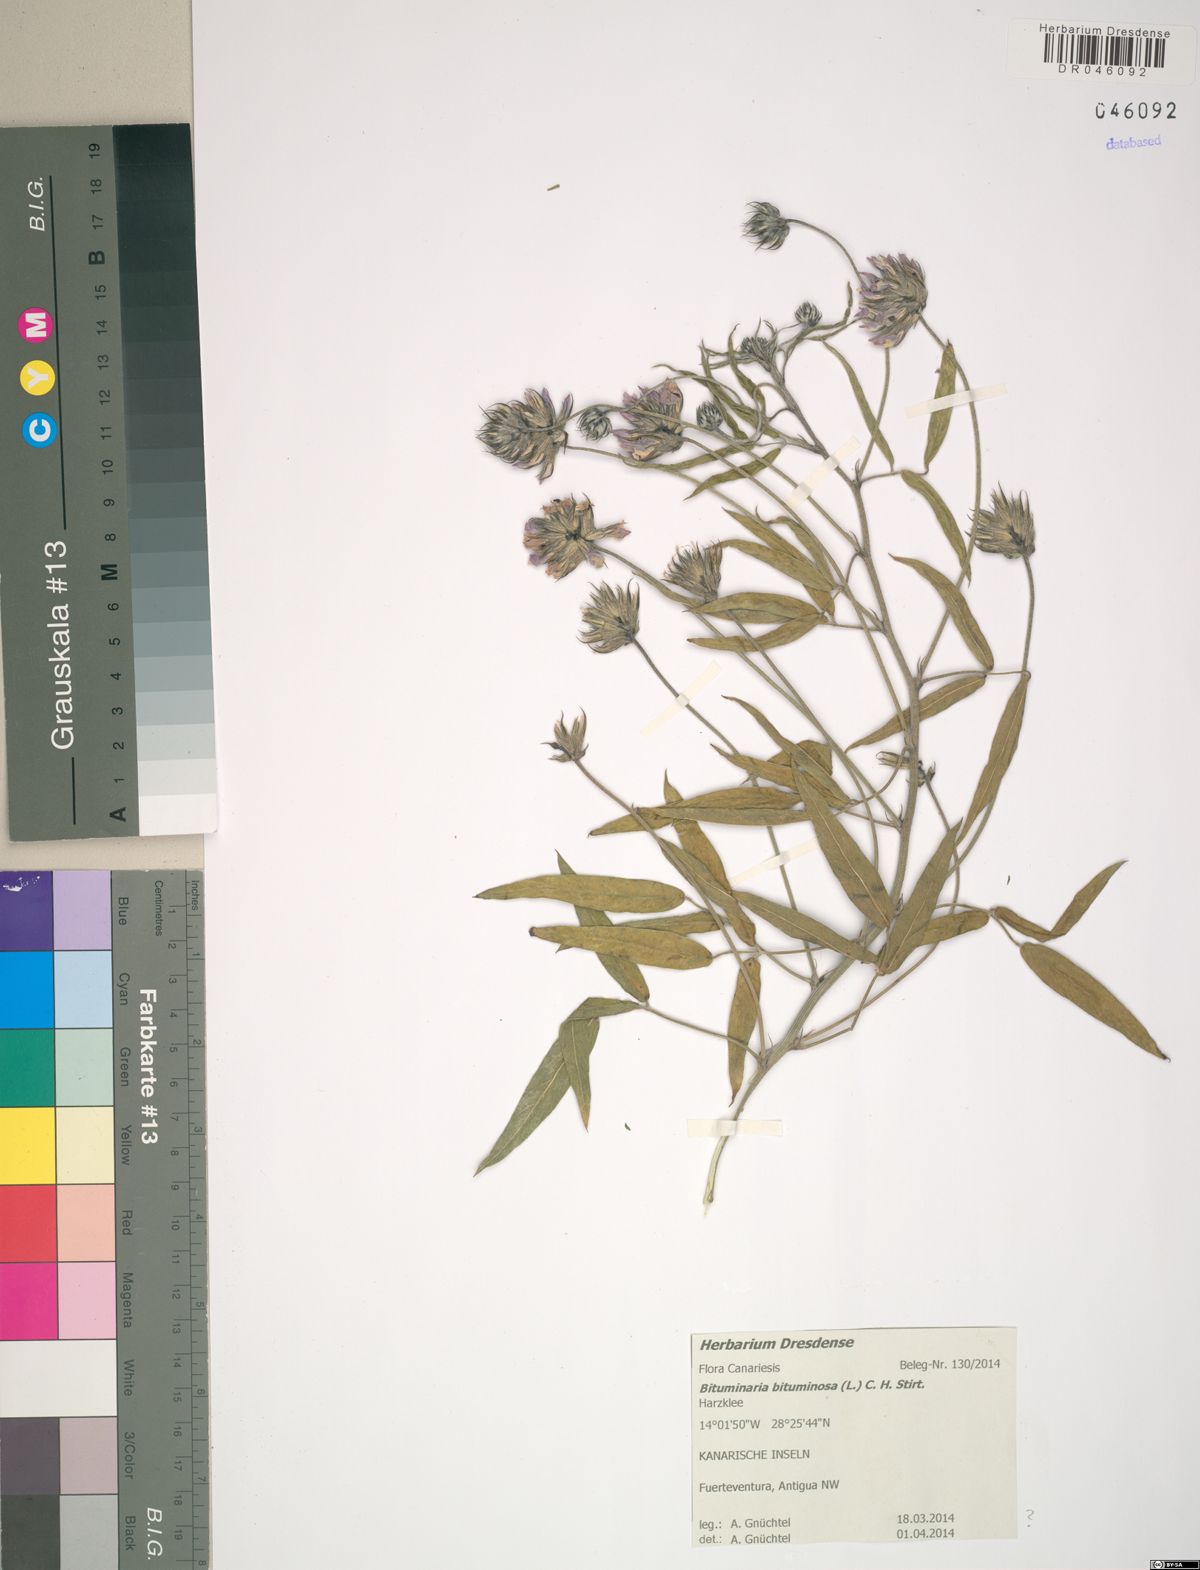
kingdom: Plantae
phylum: Tracheophyta
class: Magnoliopsida
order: Fabales
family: Fabaceae
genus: Bituminaria
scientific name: Bituminaria bituminosa
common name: Arabian pea
